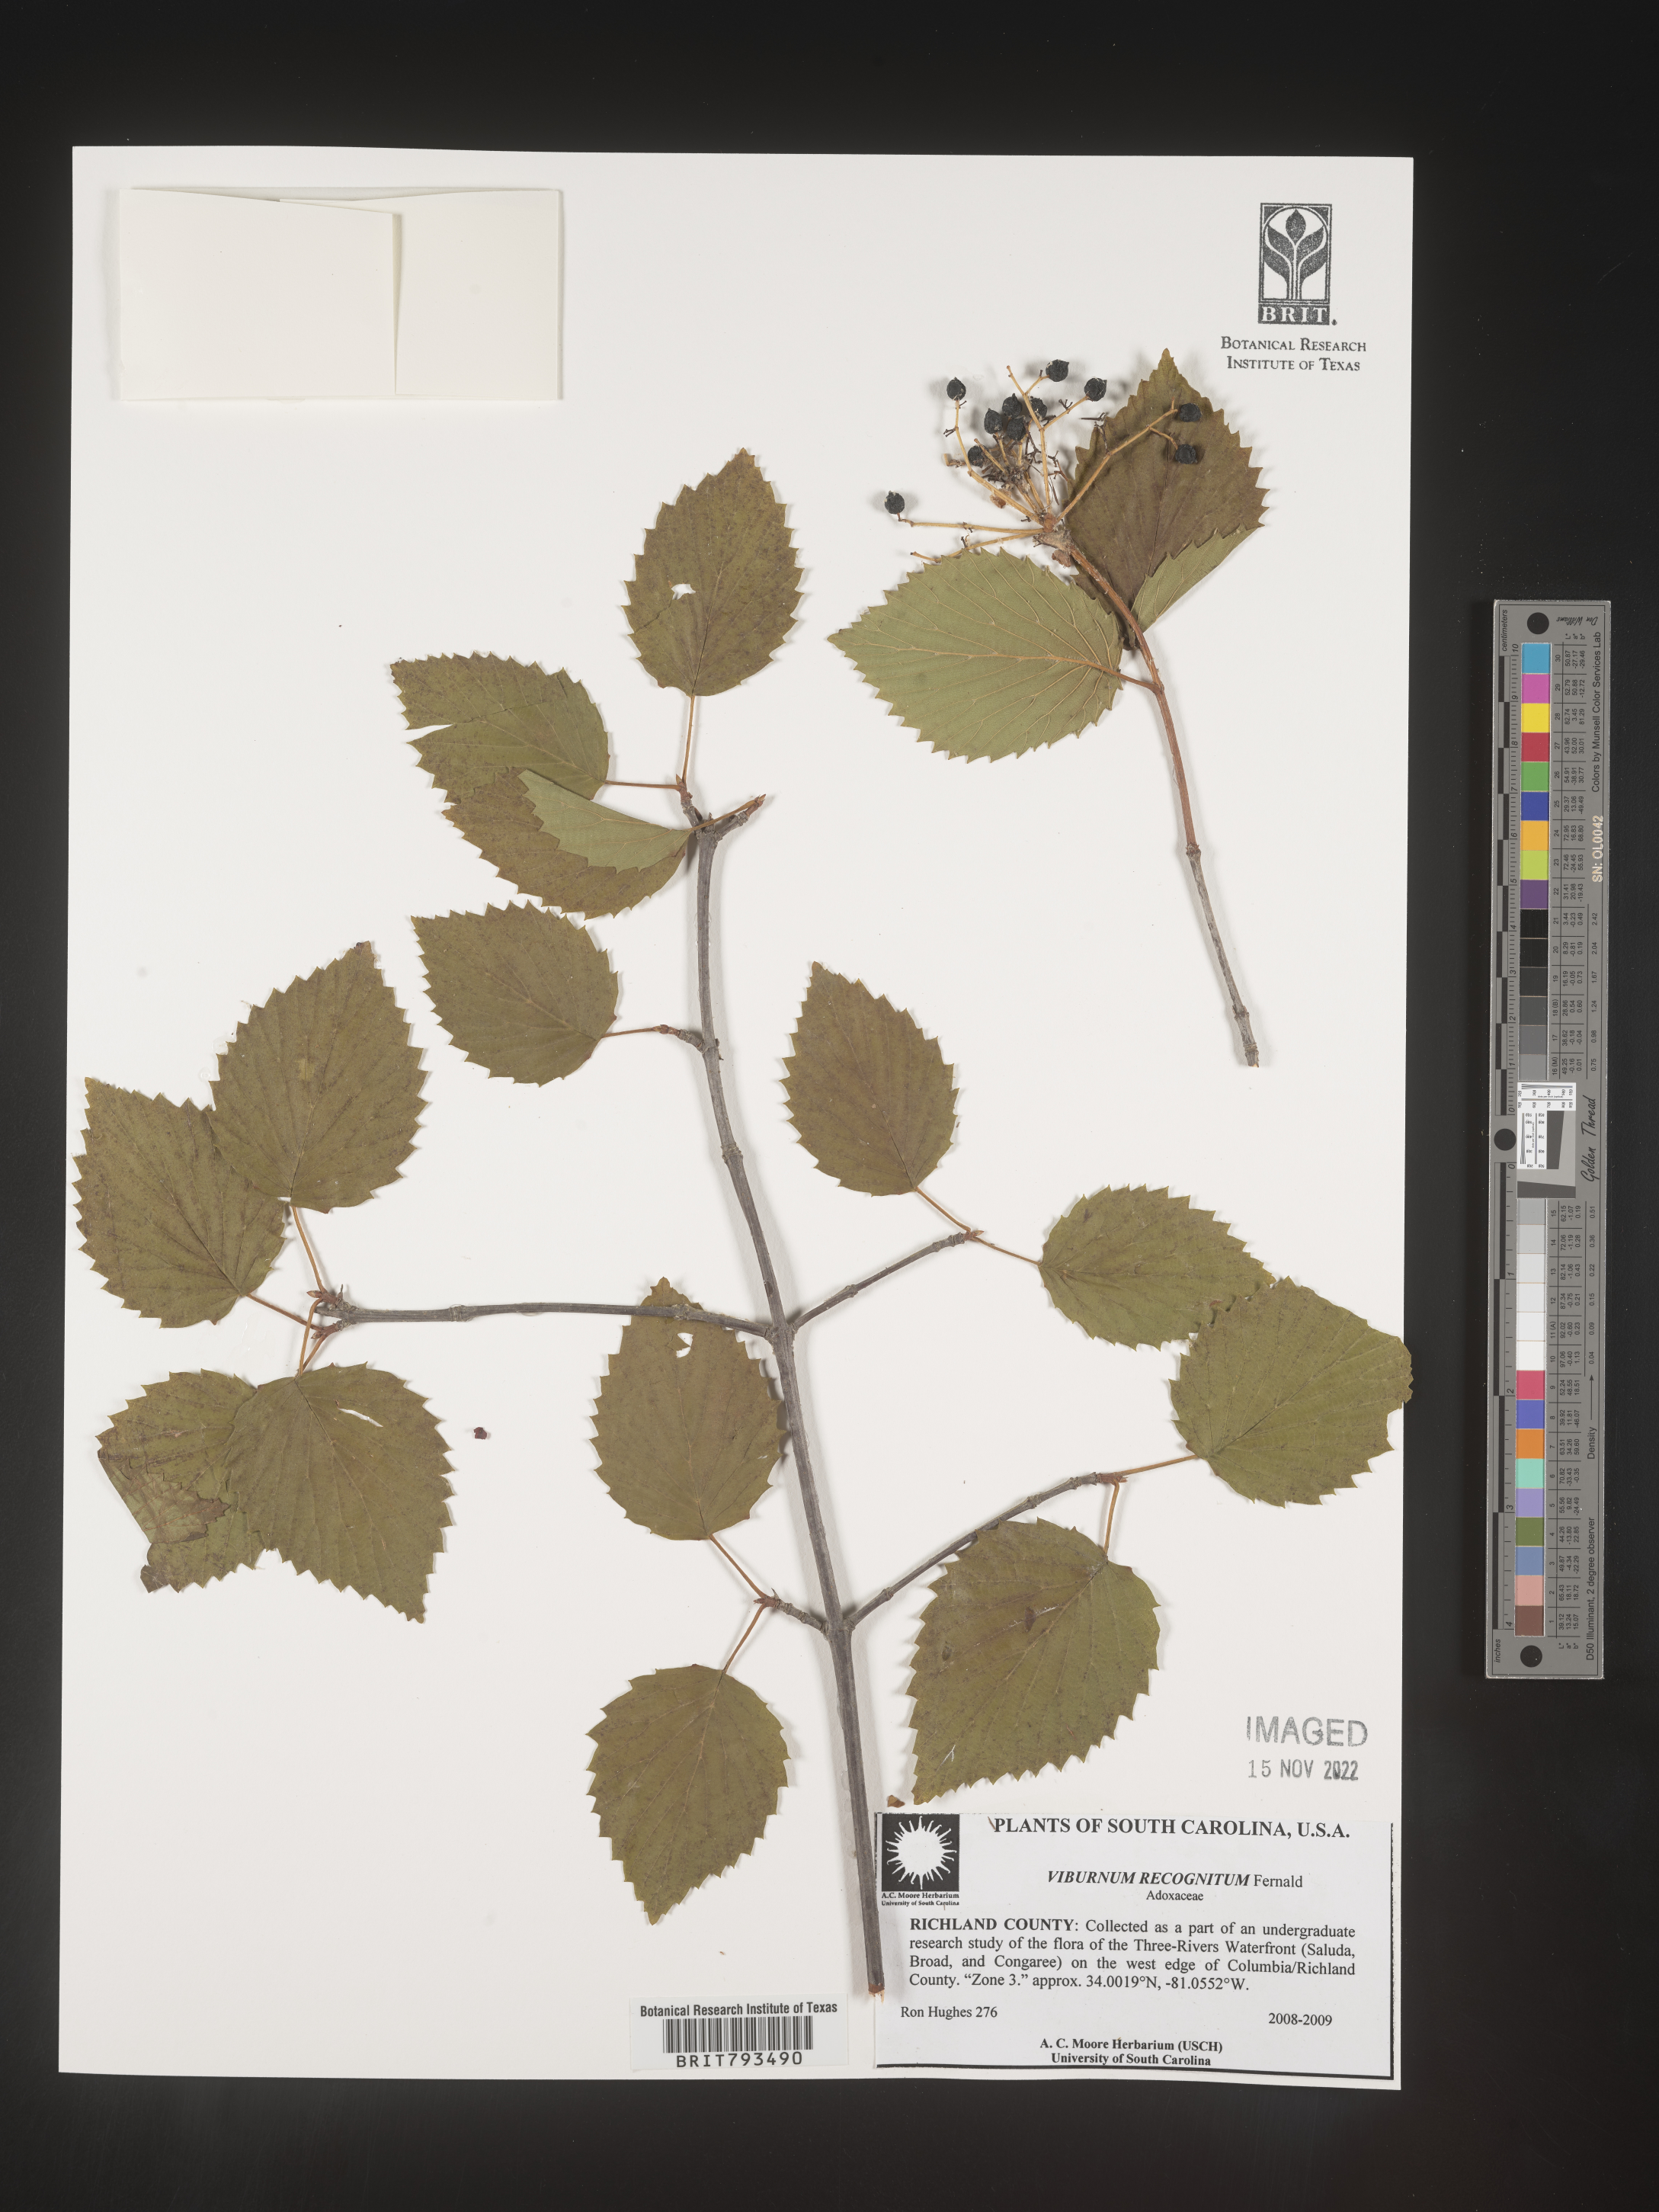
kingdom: Plantae
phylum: Tracheophyta
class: Magnoliopsida
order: Dipsacales
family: Viburnaceae
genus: Viburnum
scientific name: Viburnum recognitum
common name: Northern arrow-wood
